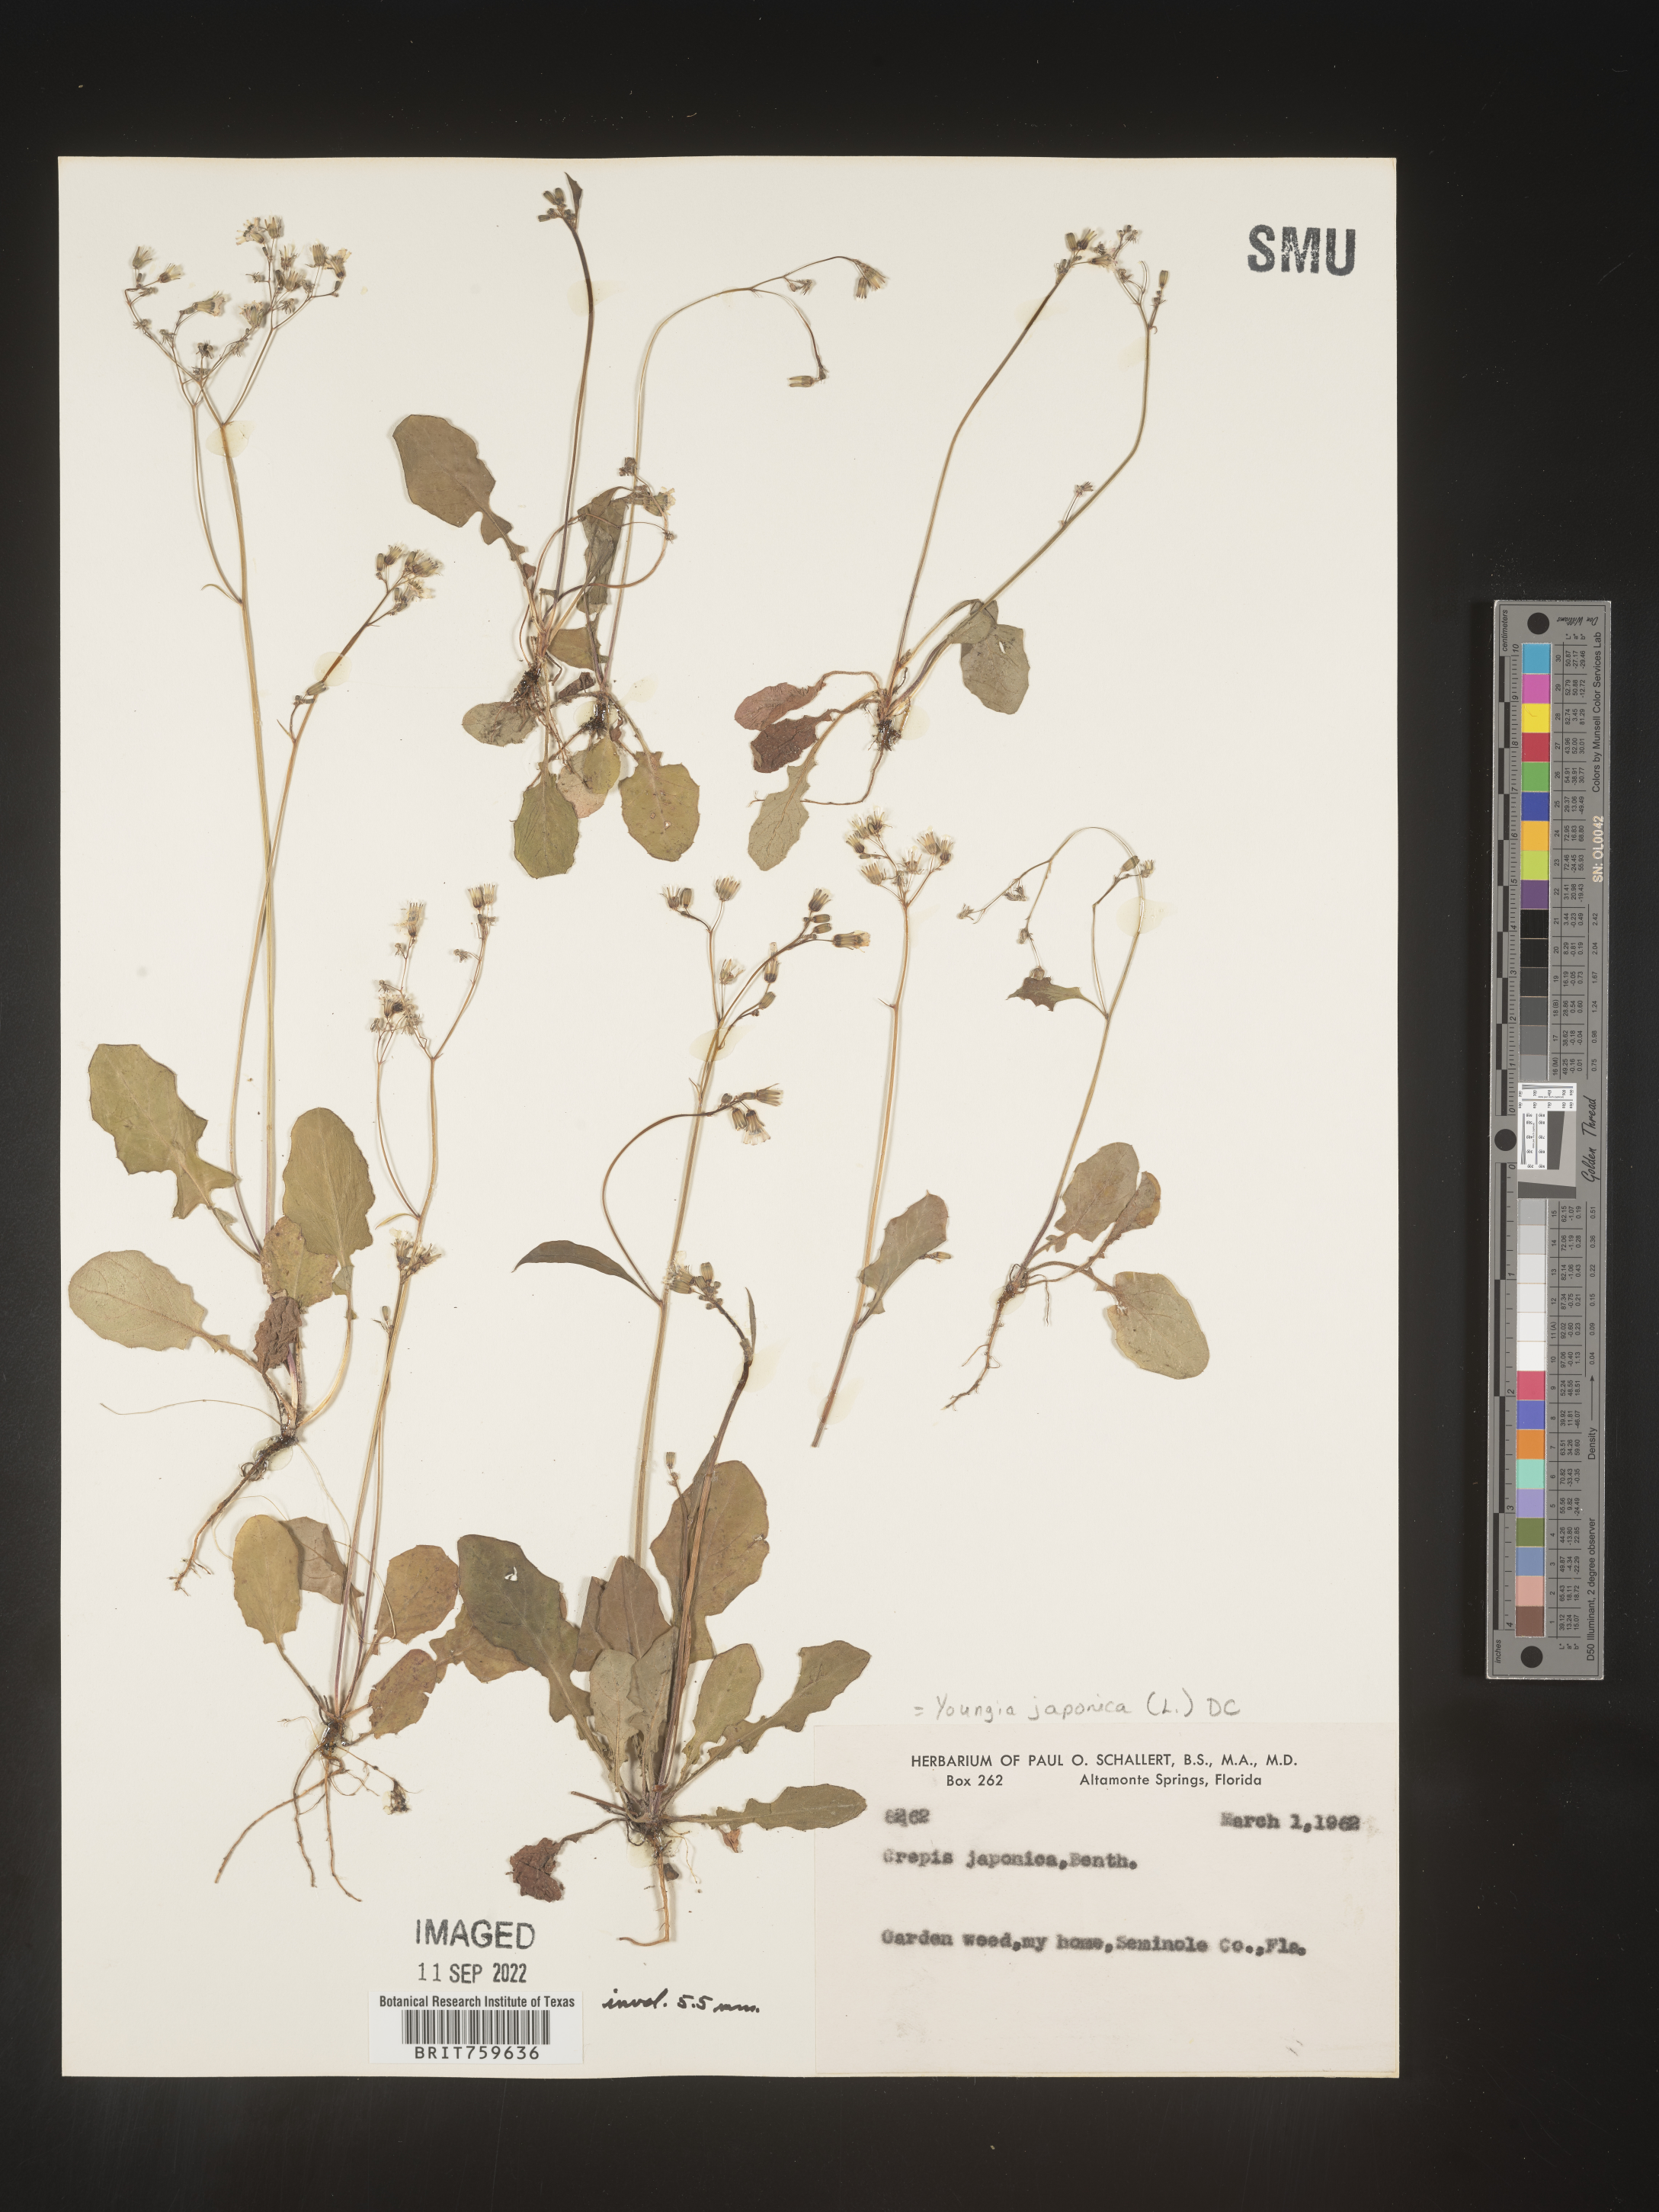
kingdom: Plantae
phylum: Tracheophyta
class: Magnoliopsida
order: Asterales
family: Asteraceae
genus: Youngia
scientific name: Youngia japonica
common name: Oriental false hawksbeard
